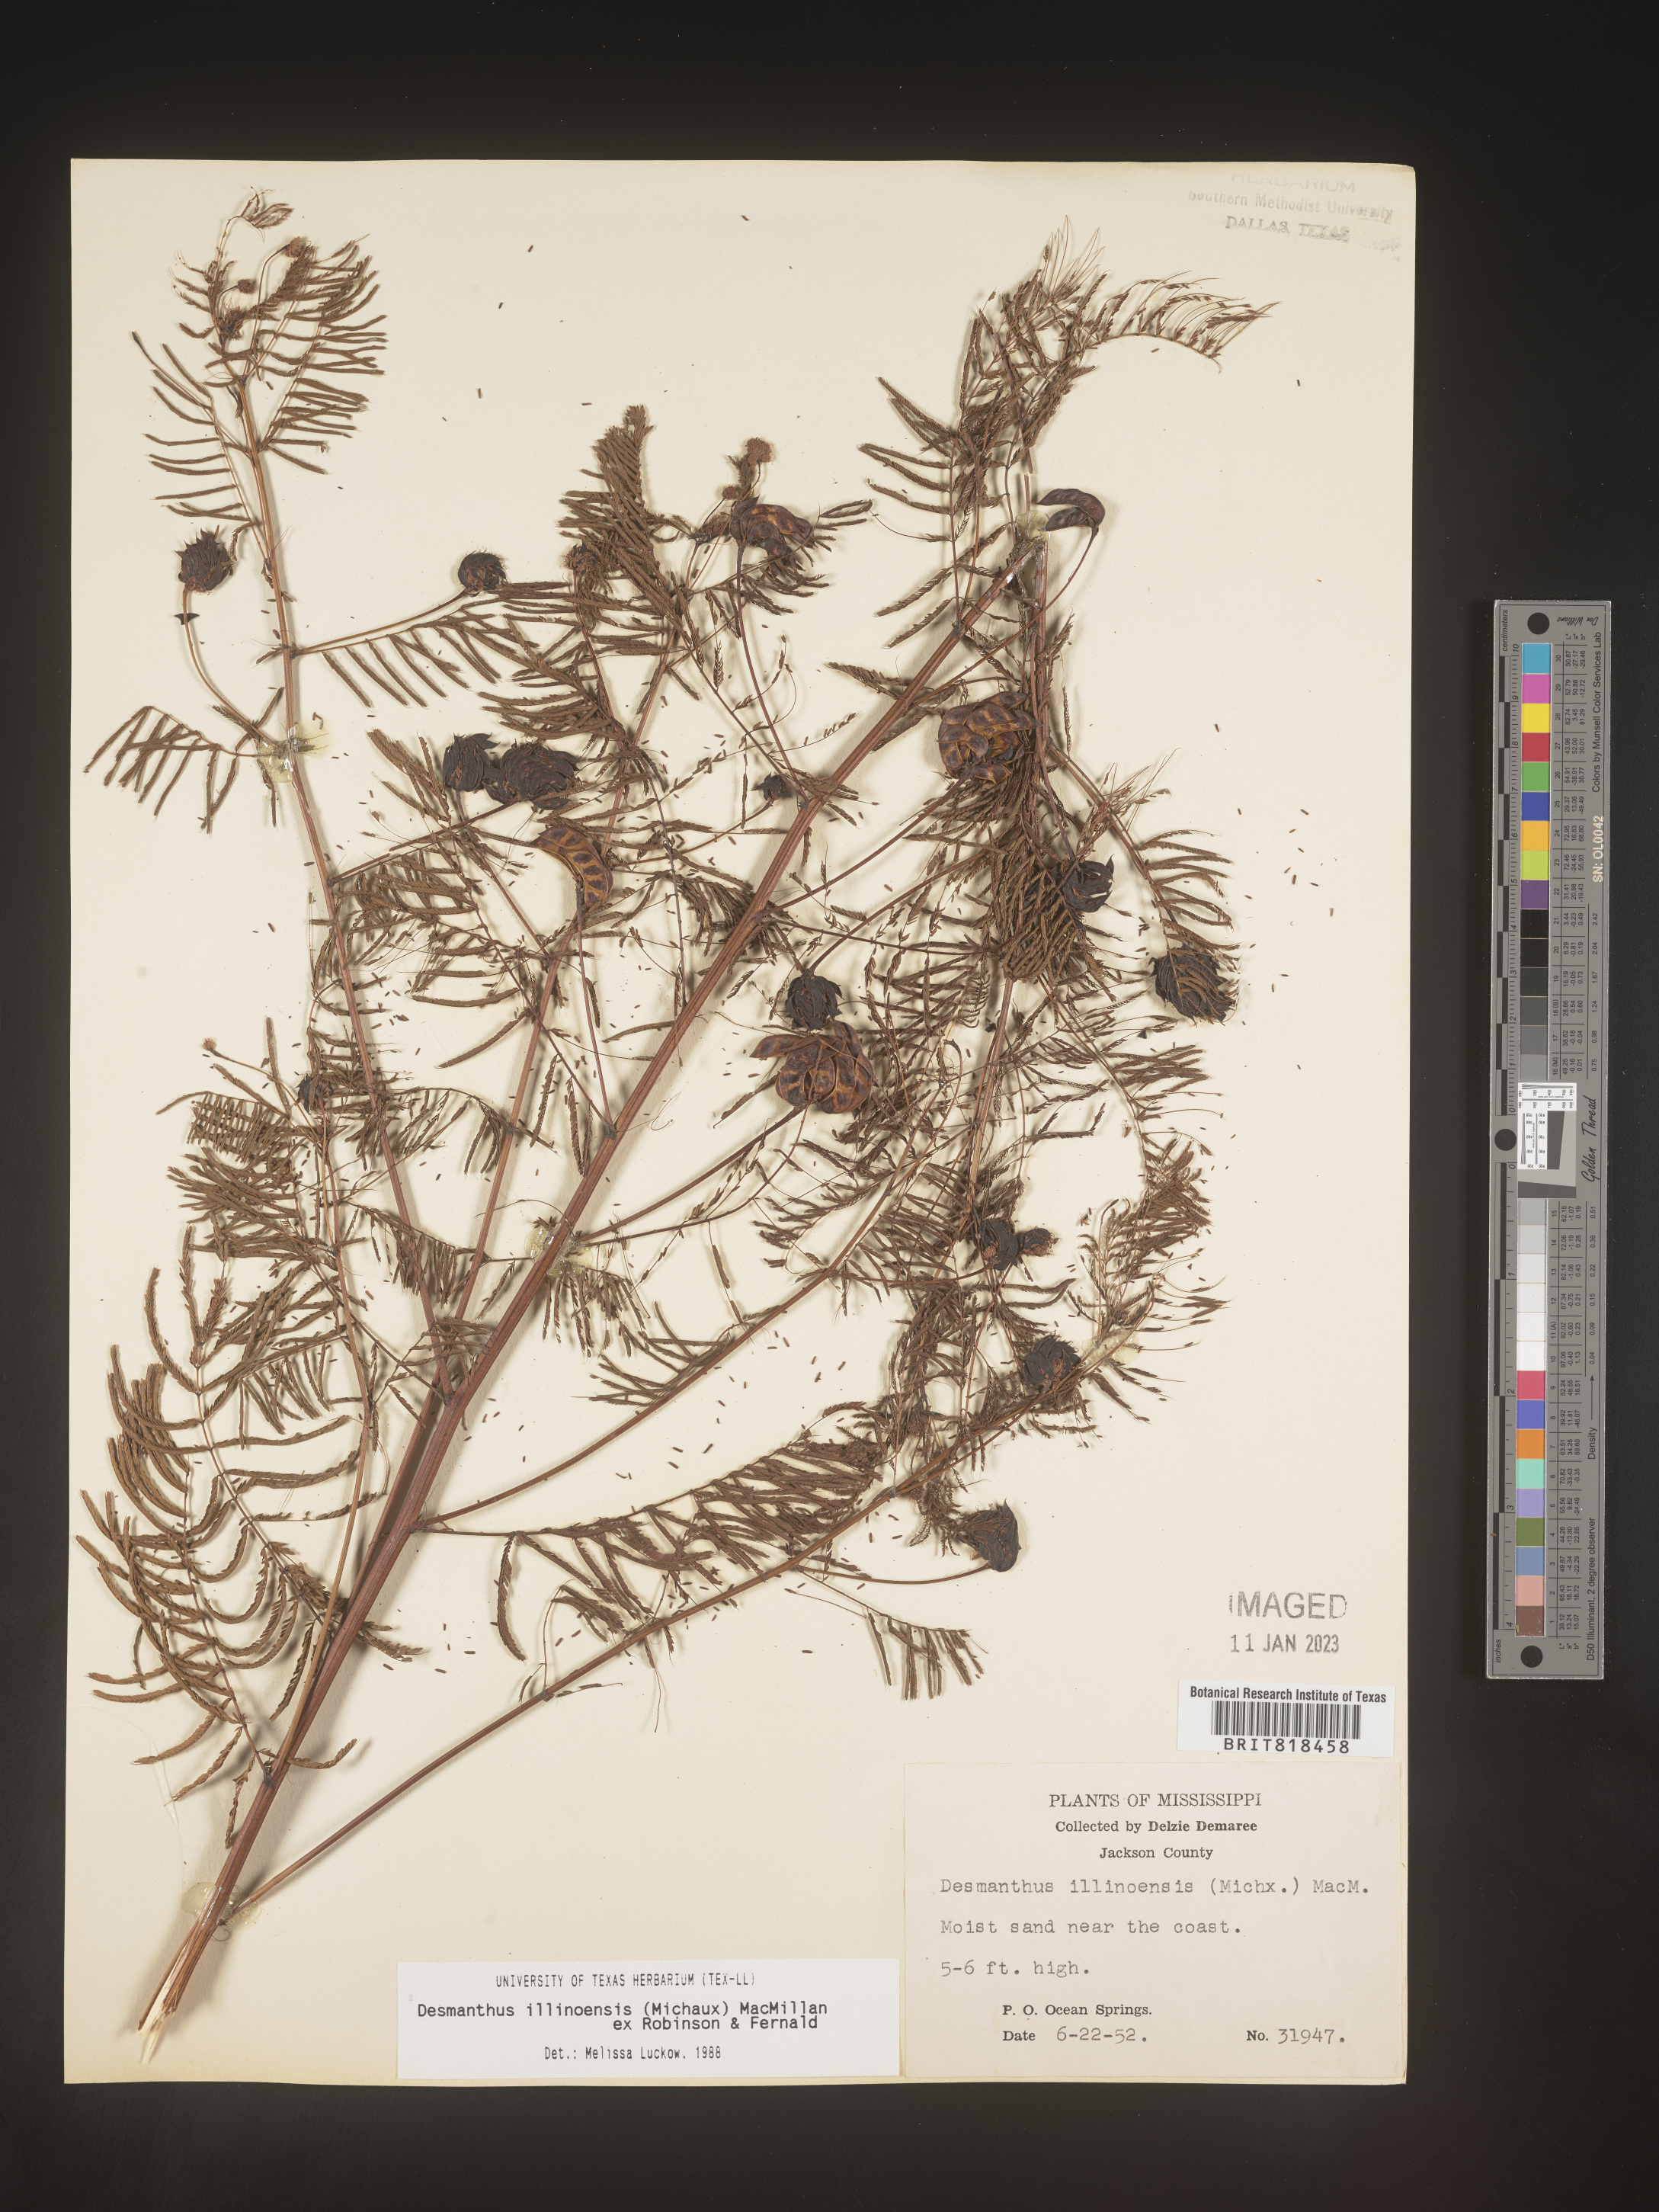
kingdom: Plantae
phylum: Tracheophyta
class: Magnoliopsida
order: Fabales
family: Fabaceae
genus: Desmanthus
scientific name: Desmanthus illinoensis
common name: Illinois bundle-flower
